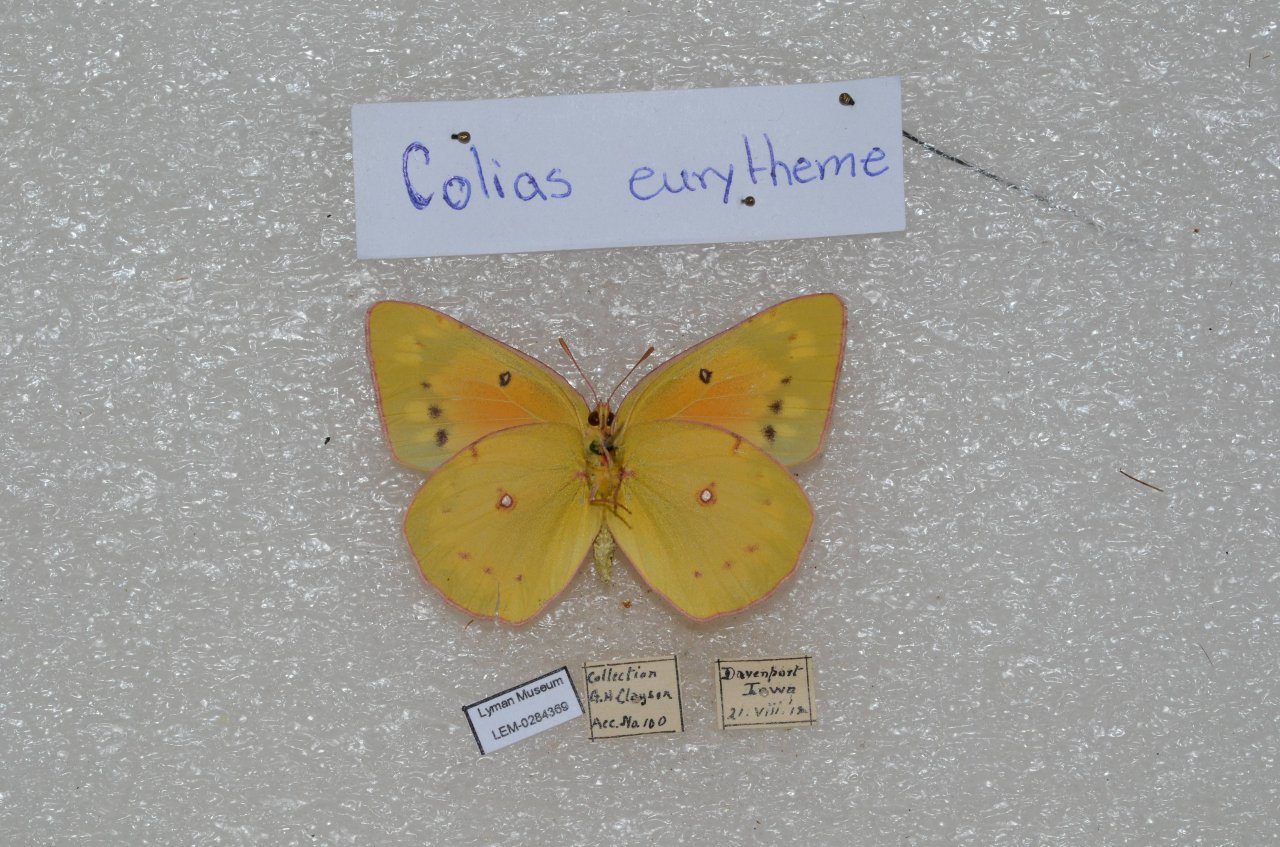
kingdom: Animalia
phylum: Arthropoda
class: Insecta
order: Lepidoptera
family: Pieridae
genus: Colias
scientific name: Colias eurytheme
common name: Orange Sulphur
